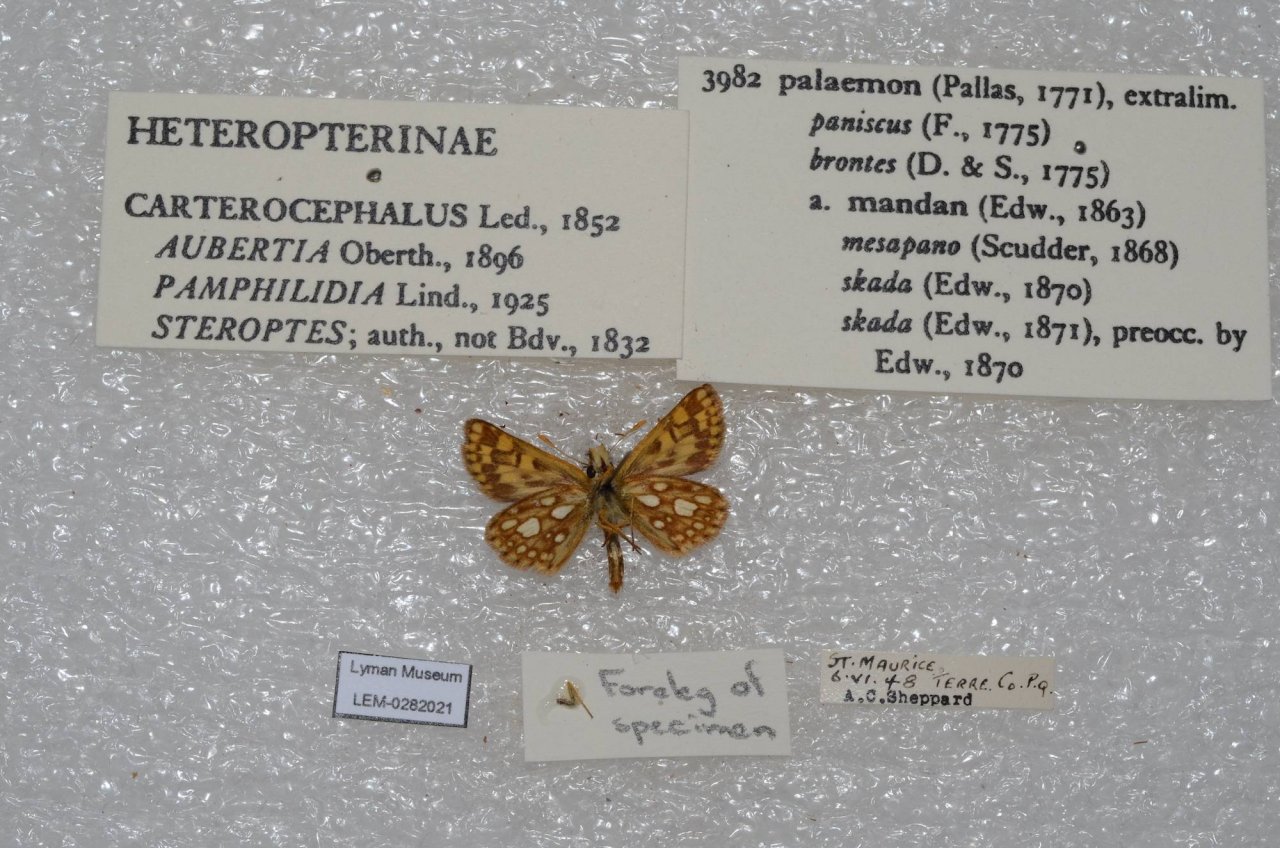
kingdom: Animalia
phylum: Arthropoda
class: Insecta
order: Lepidoptera
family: Hesperiidae
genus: Carterocephalus
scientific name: Carterocephalus palaemon
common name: Chequered Skipper
